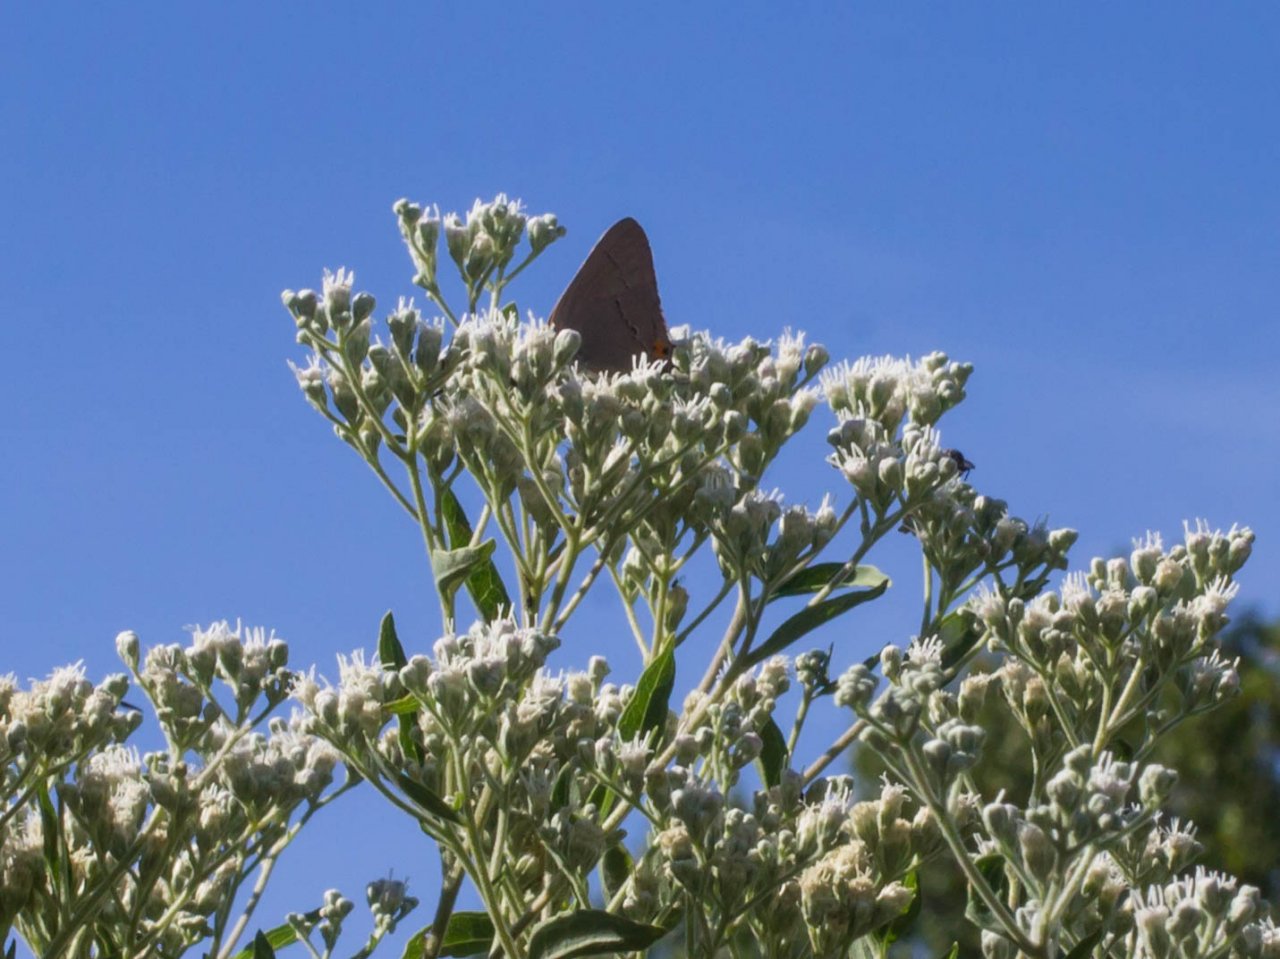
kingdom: Animalia
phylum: Arthropoda
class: Insecta
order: Lepidoptera
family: Lycaenidae
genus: Strymon
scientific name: Strymon melinus
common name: Gray Hairstreak
